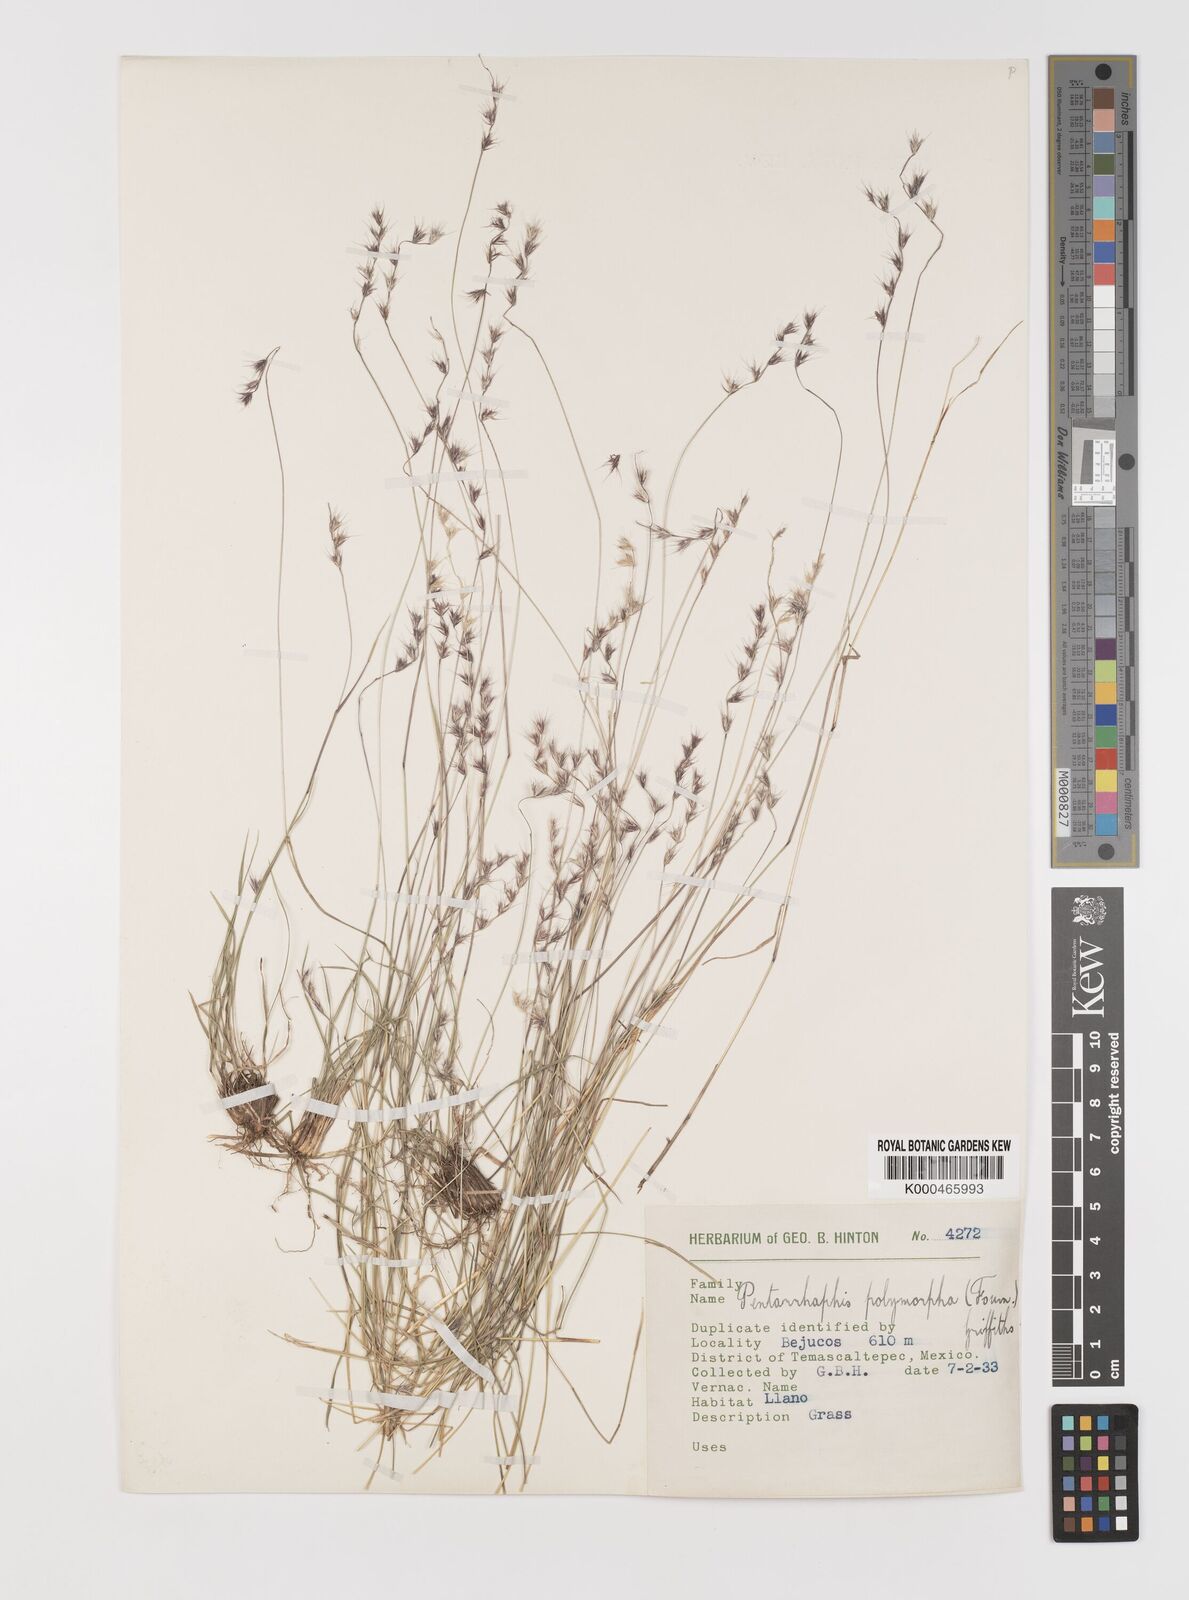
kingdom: Plantae
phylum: Tracheophyta
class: Liliopsida
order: Poales
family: Poaceae
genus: Bouteloua
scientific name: Bouteloua polymorpha
